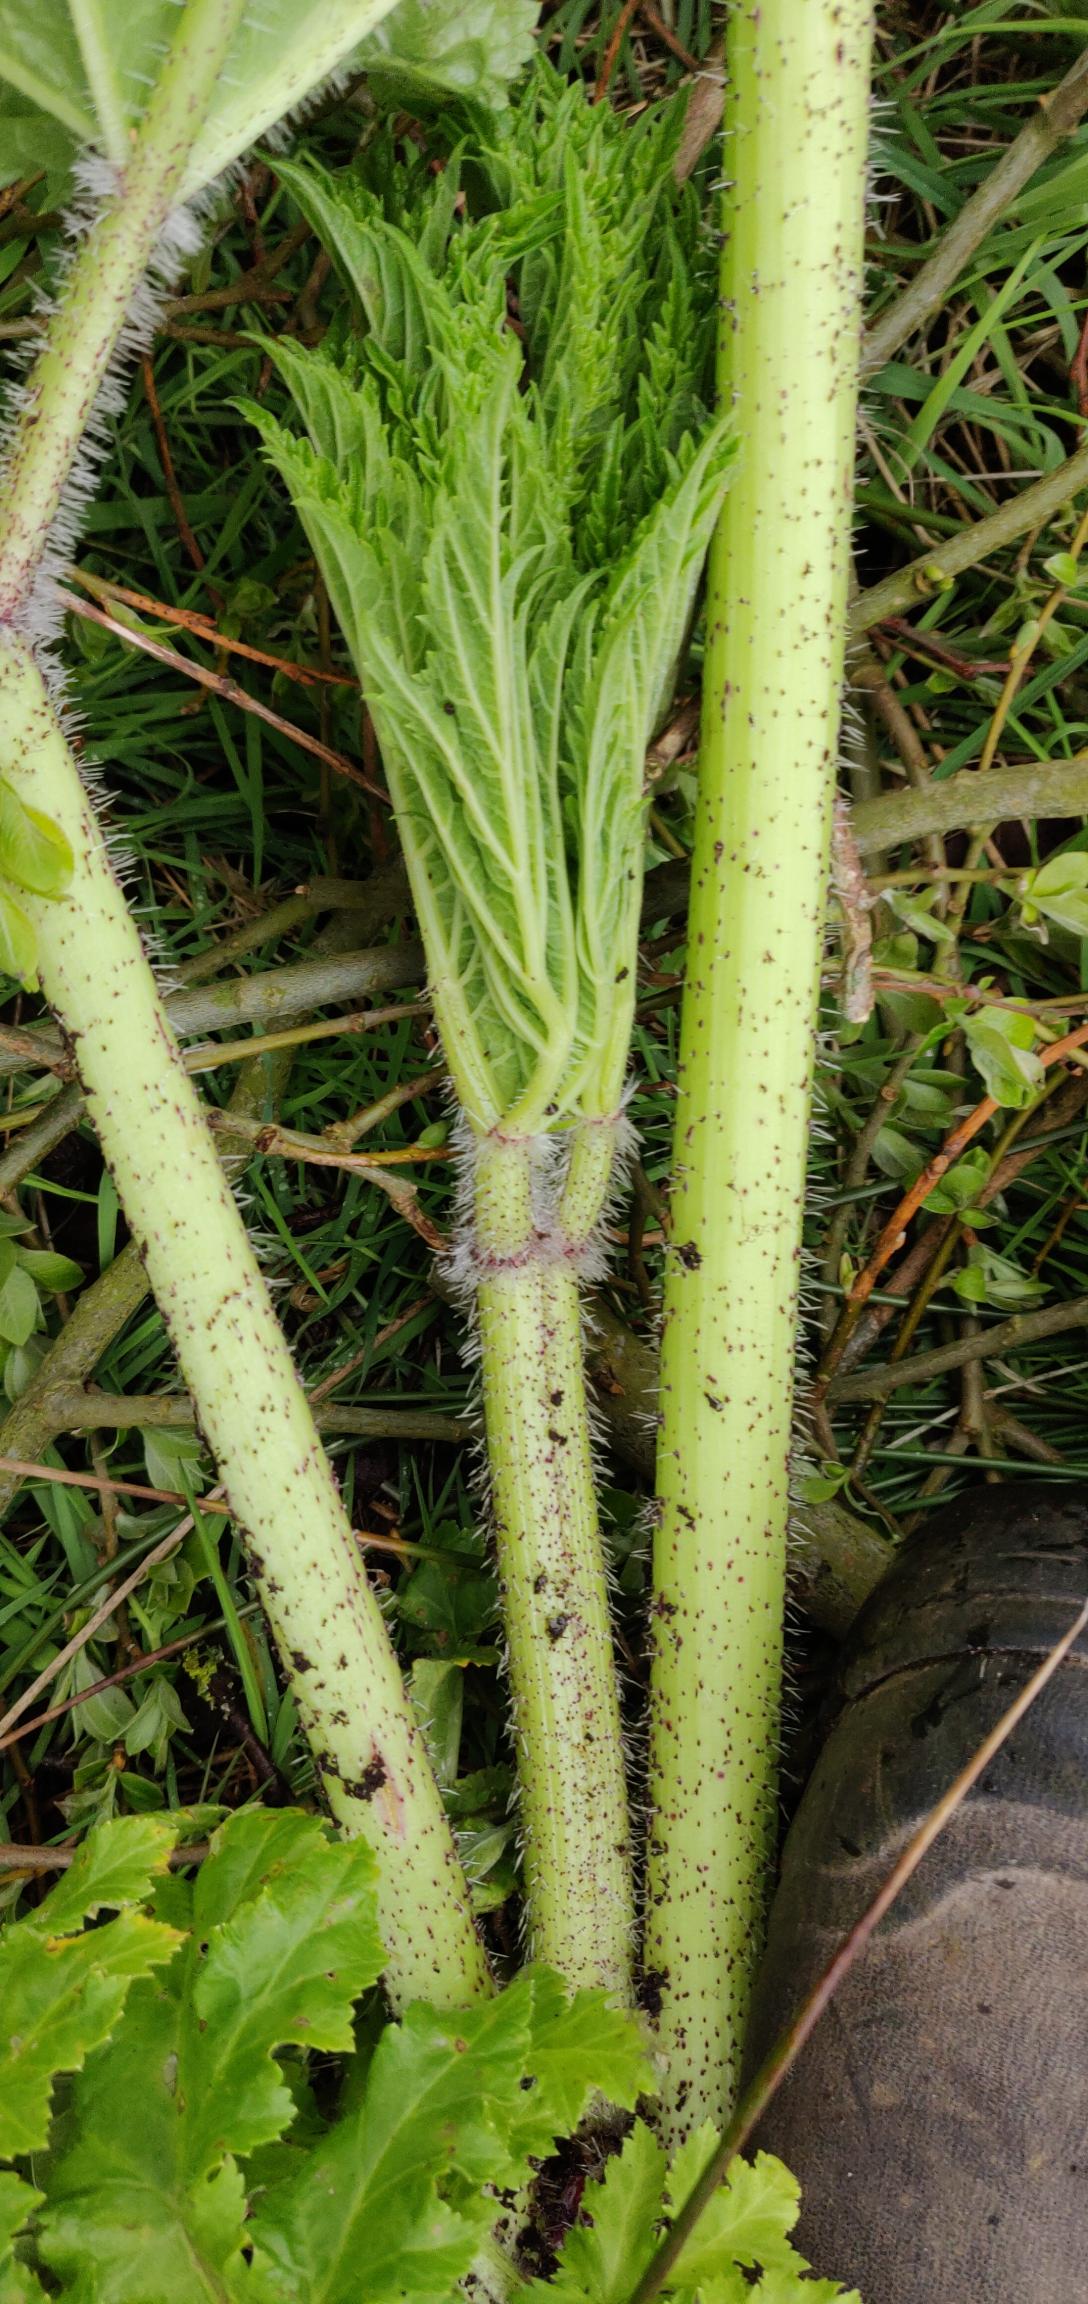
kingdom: Plantae
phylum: Tracheophyta
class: Magnoliopsida
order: Apiales
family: Apiaceae
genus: Heracleum
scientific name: Heracleum mantegazzianum
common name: Kæmpe-bjørneklo
